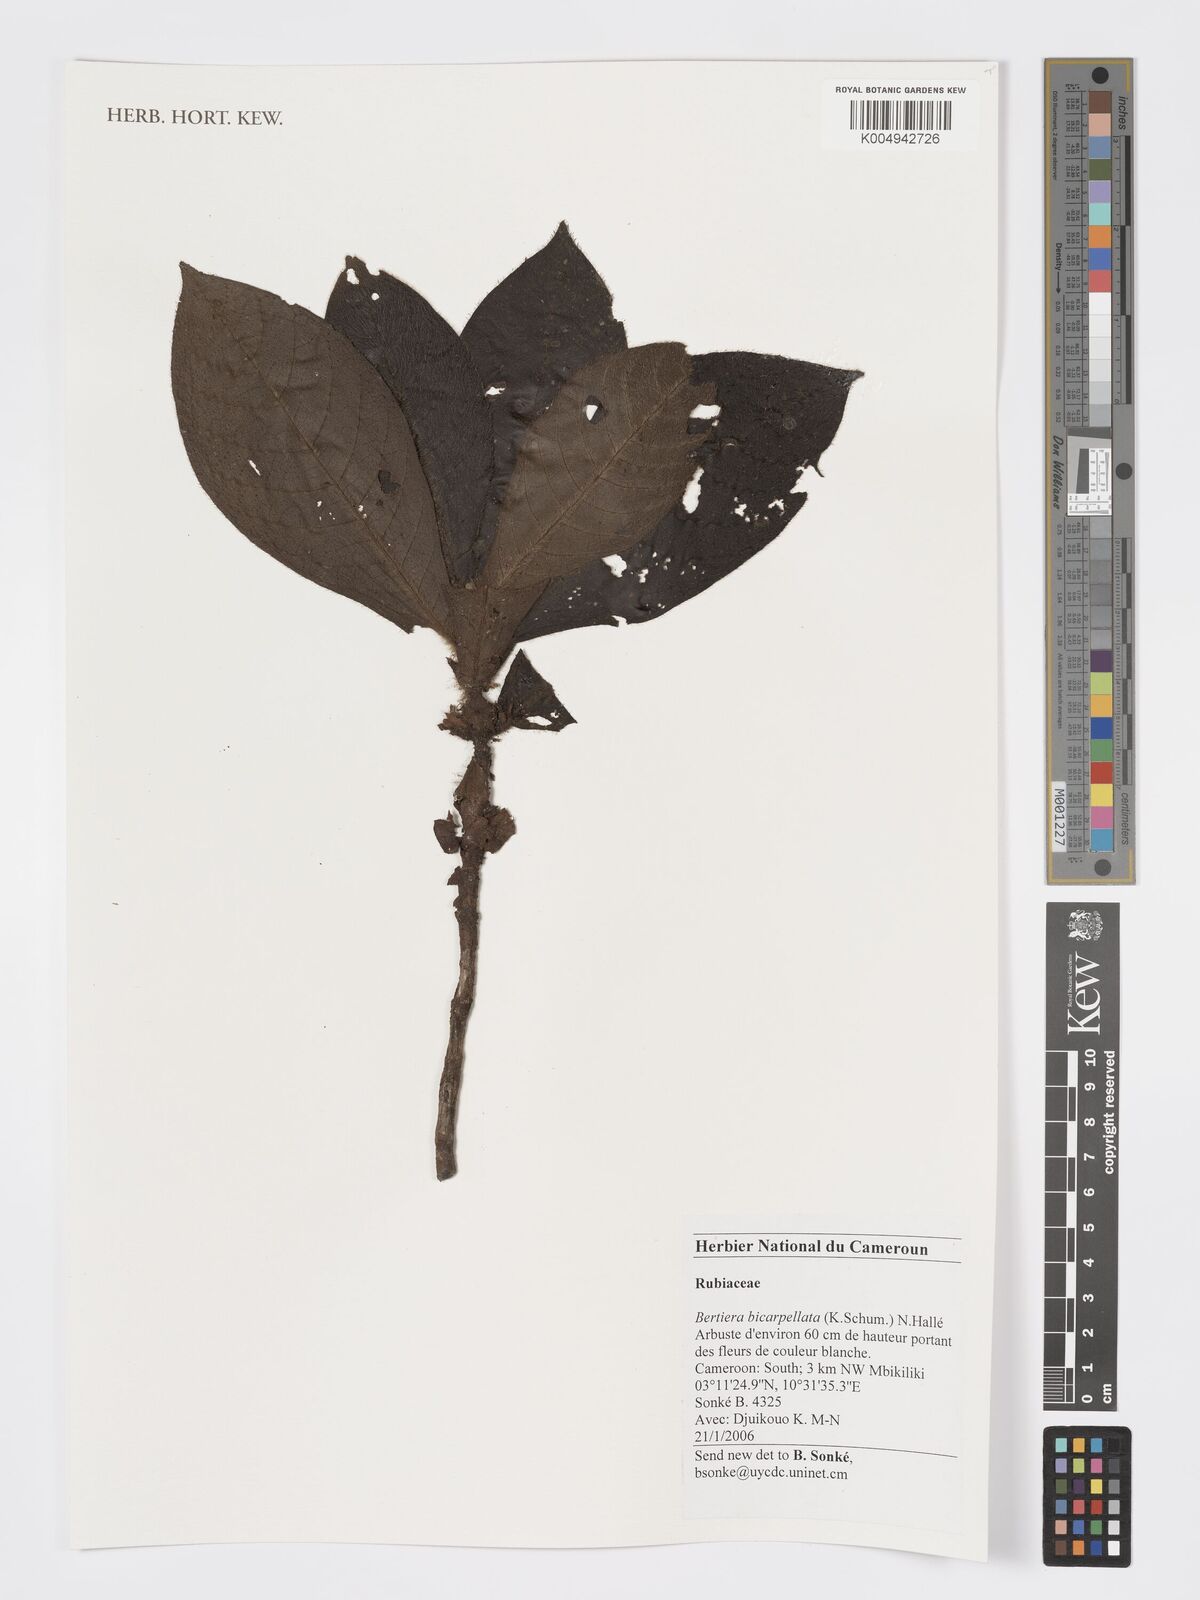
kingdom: Plantae
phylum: Tracheophyta
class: Magnoliopsida
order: Gentianales
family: Rubiaceae
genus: Bertiera
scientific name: Bertiera bicarpellata
